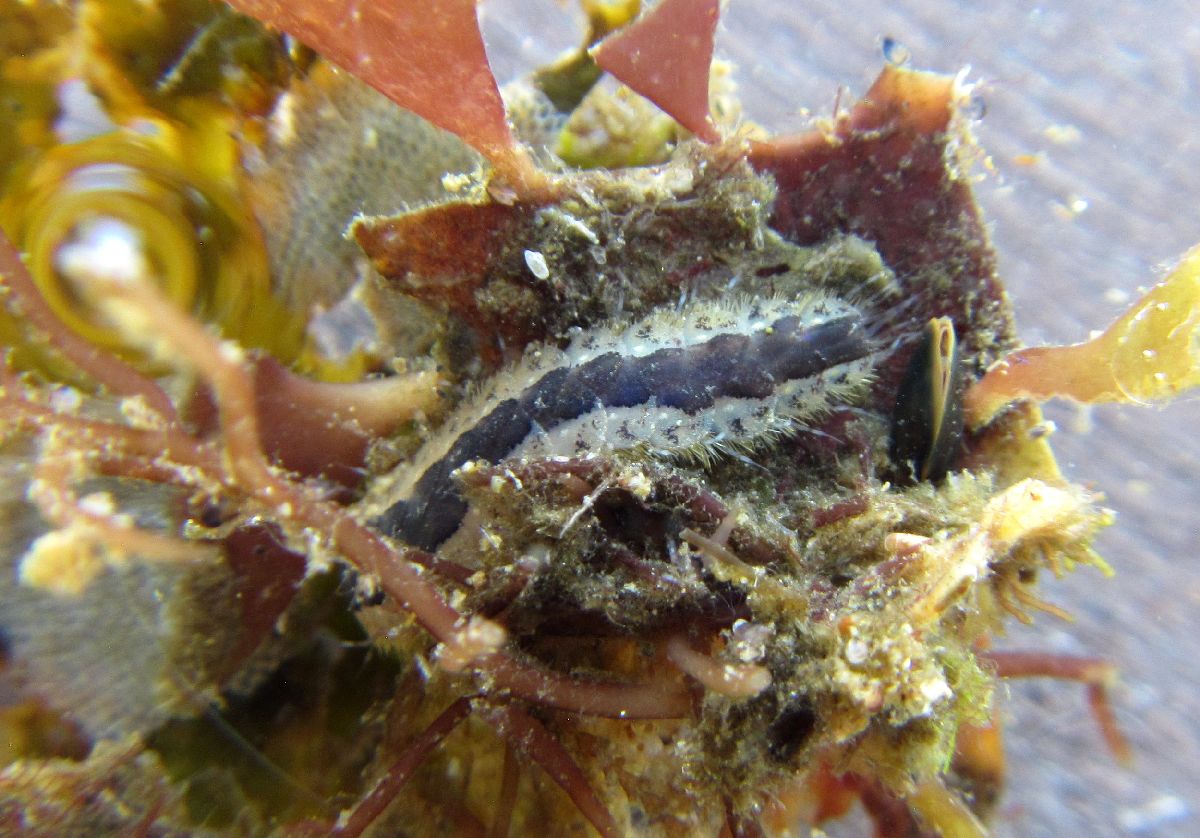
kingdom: Animalia
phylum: Annelida
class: Polychaeta
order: Phyllodocida
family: Polynoidae
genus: Harmothoe
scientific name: Harmothoe imbricata
